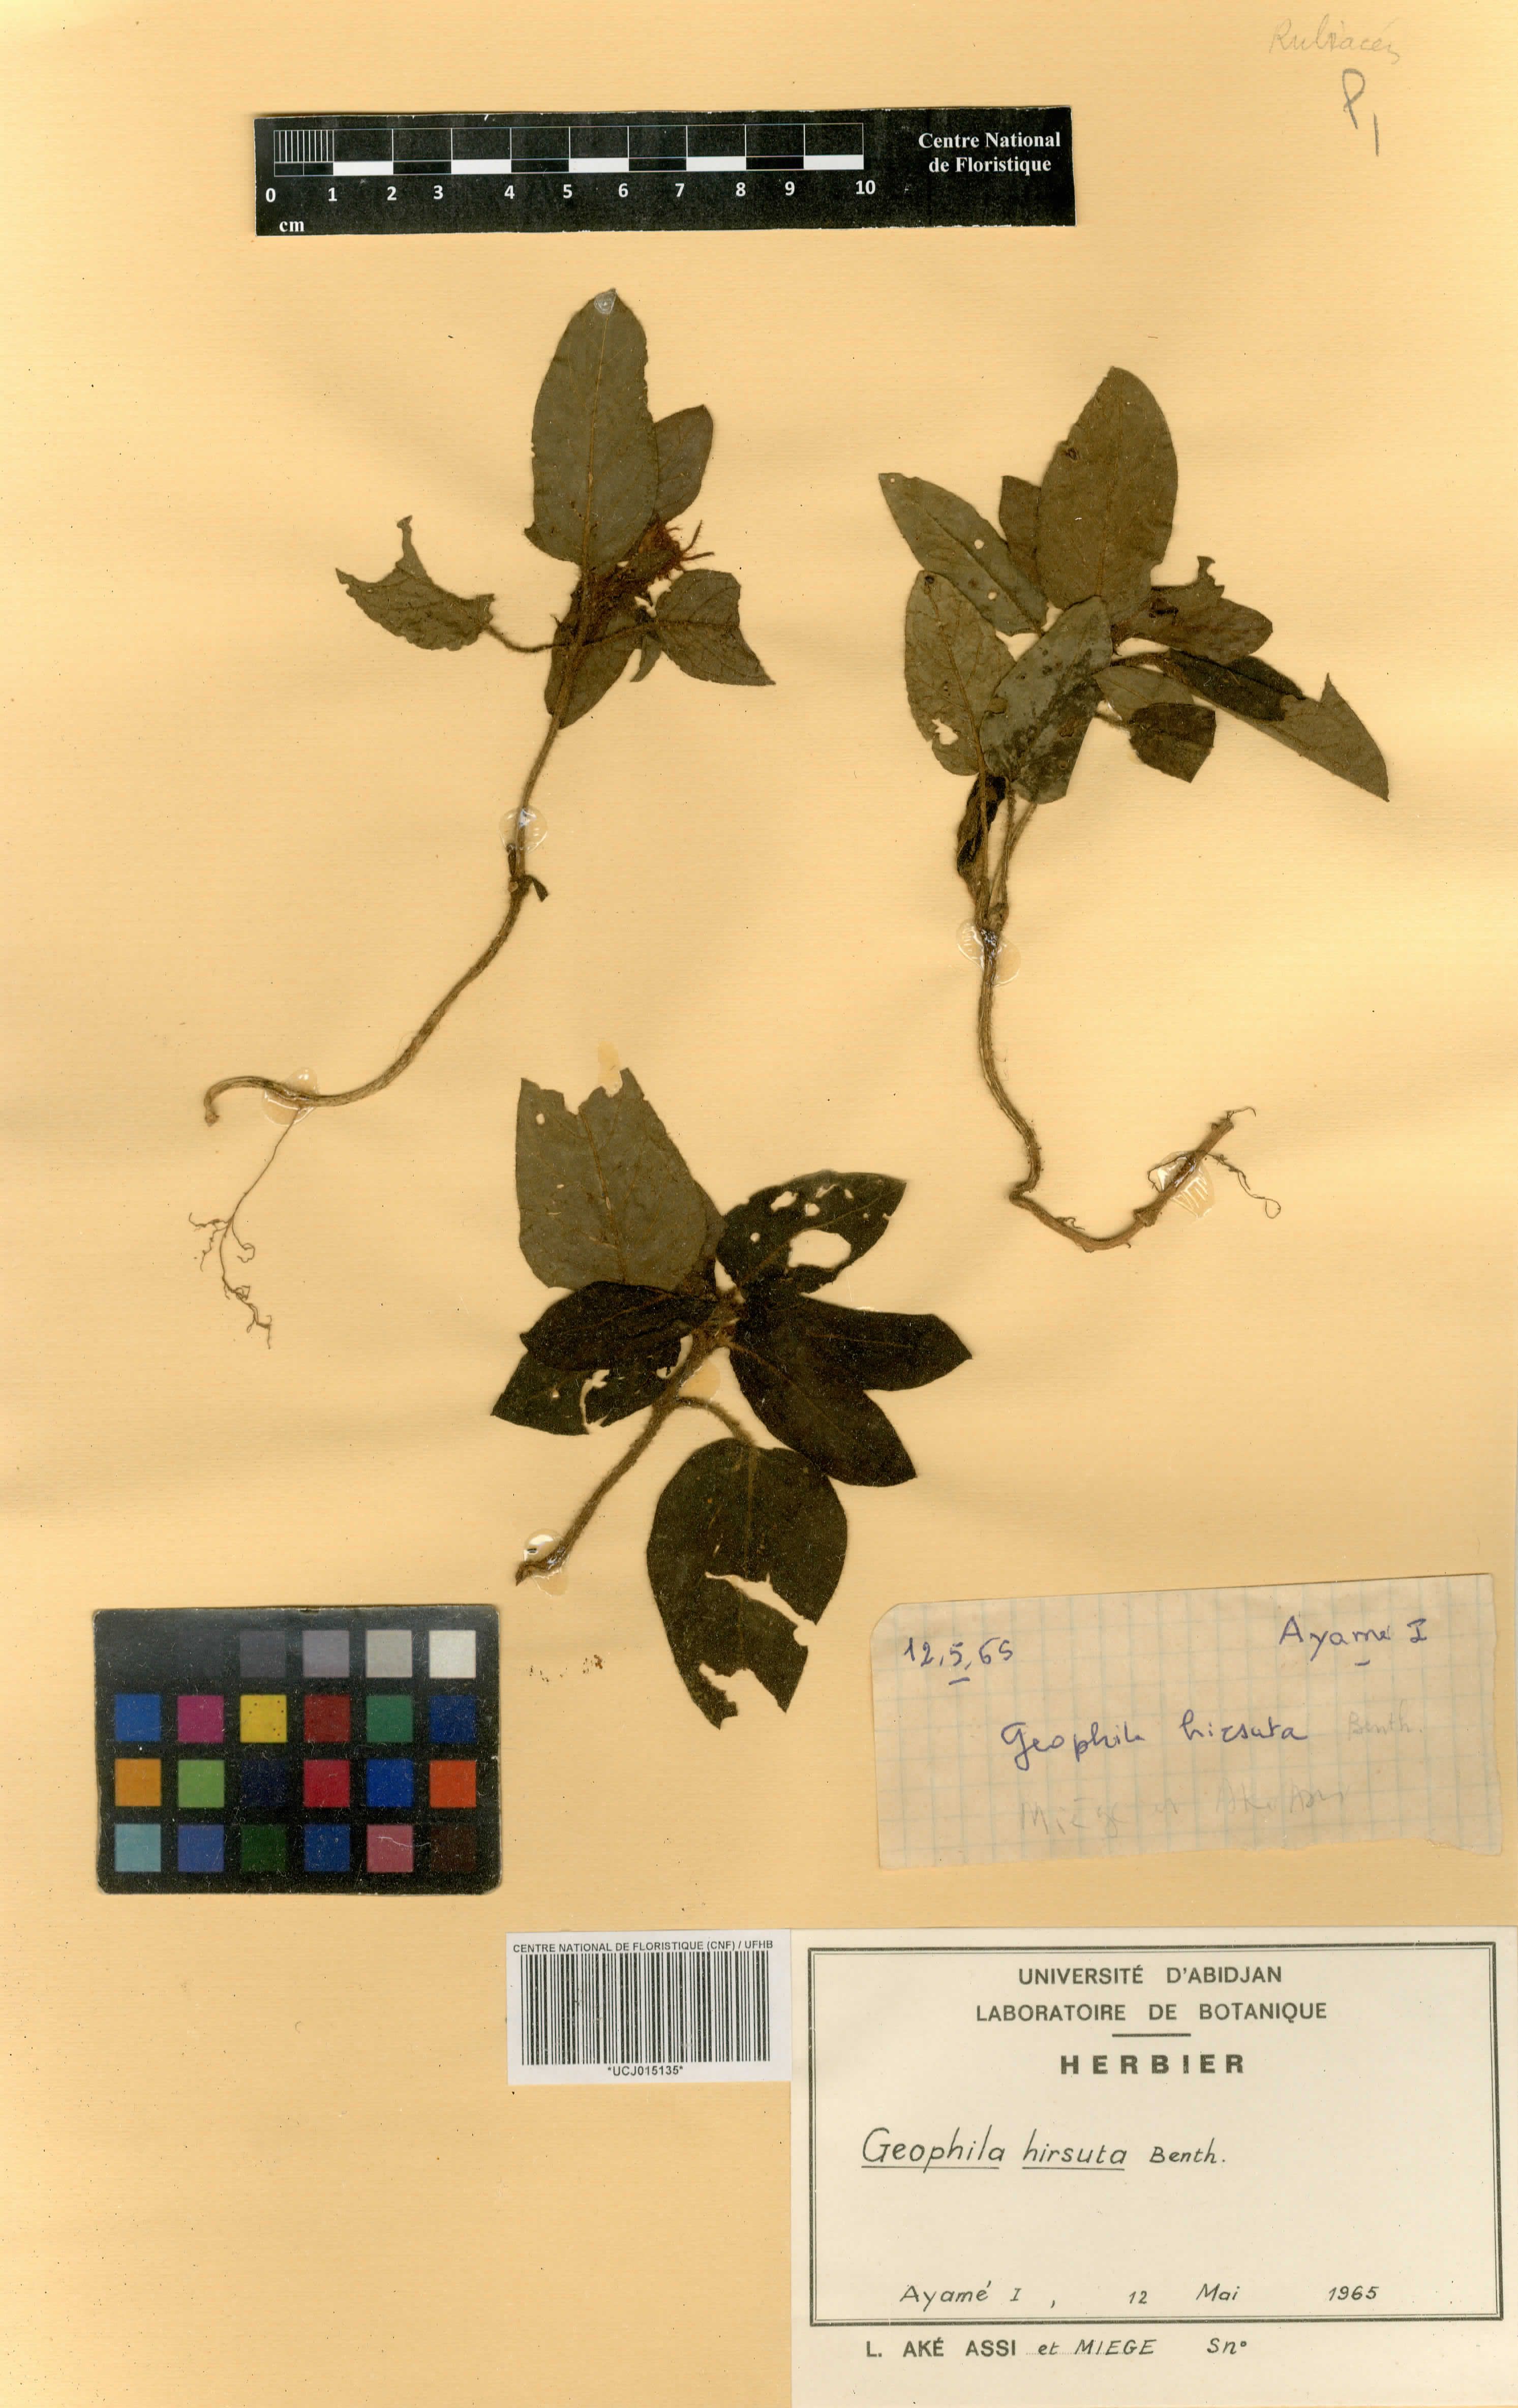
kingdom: Plantae
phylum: Tracheophyta
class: Magnoliopsida
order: Gentianales
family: Rubiaceae
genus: Hymenocoleus
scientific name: Hymenocoleus hirsutus
